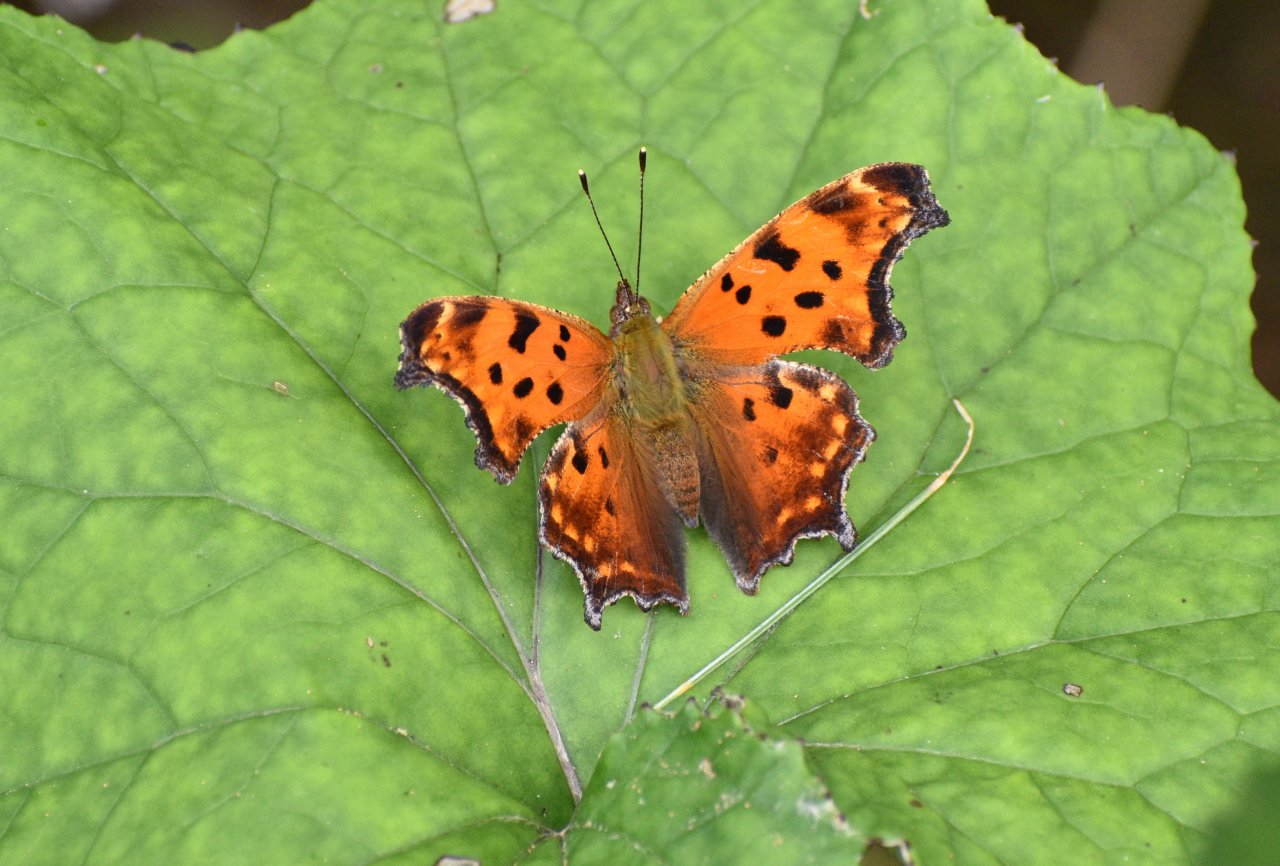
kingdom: Animalia
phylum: Arthropoda
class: Insecta
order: Lepidoptera
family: Nymphalidae
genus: Polygonia
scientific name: Polygonia comma
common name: Eastern Comma
